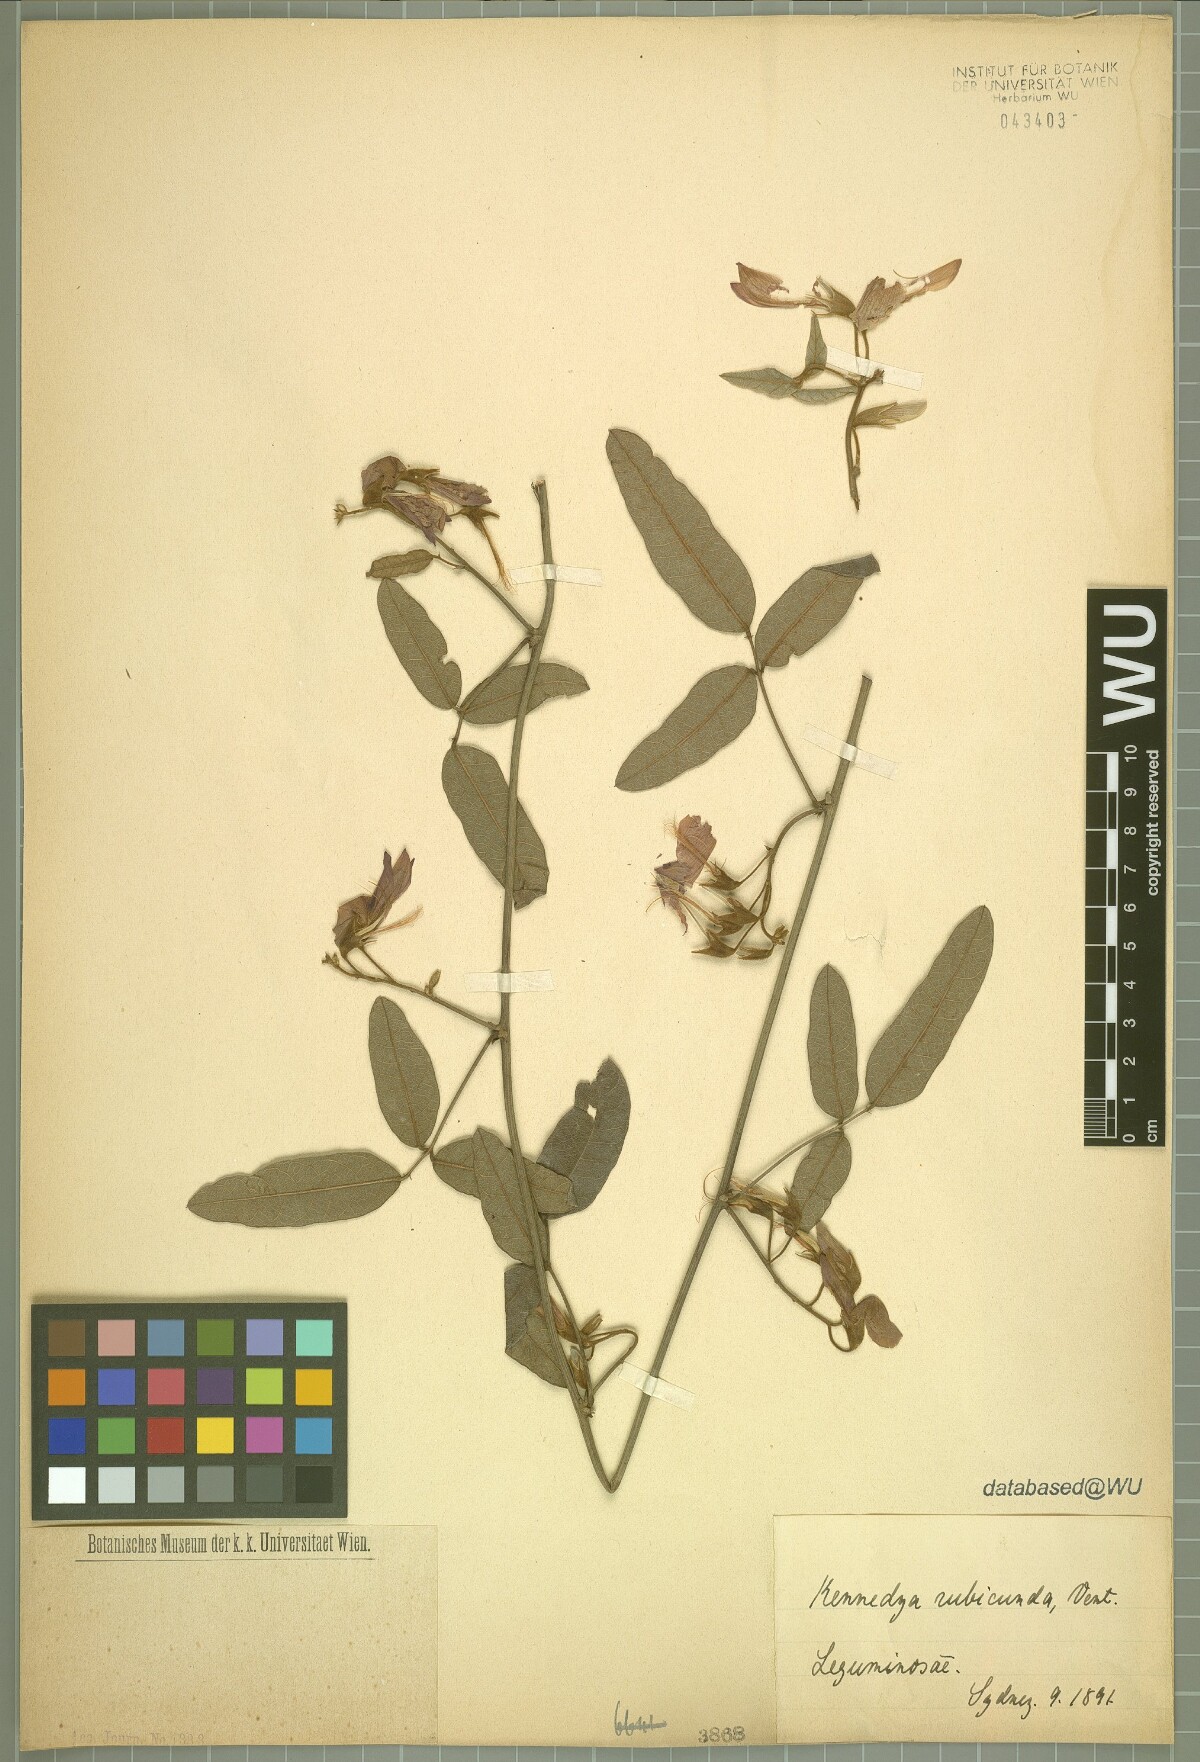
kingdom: Plantae
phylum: Tracheophyta
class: Magnoliopsida
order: Fabales
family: Fabaceae
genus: Kennedia
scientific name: Kennedia rubicunda
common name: Red kennedy-pea
